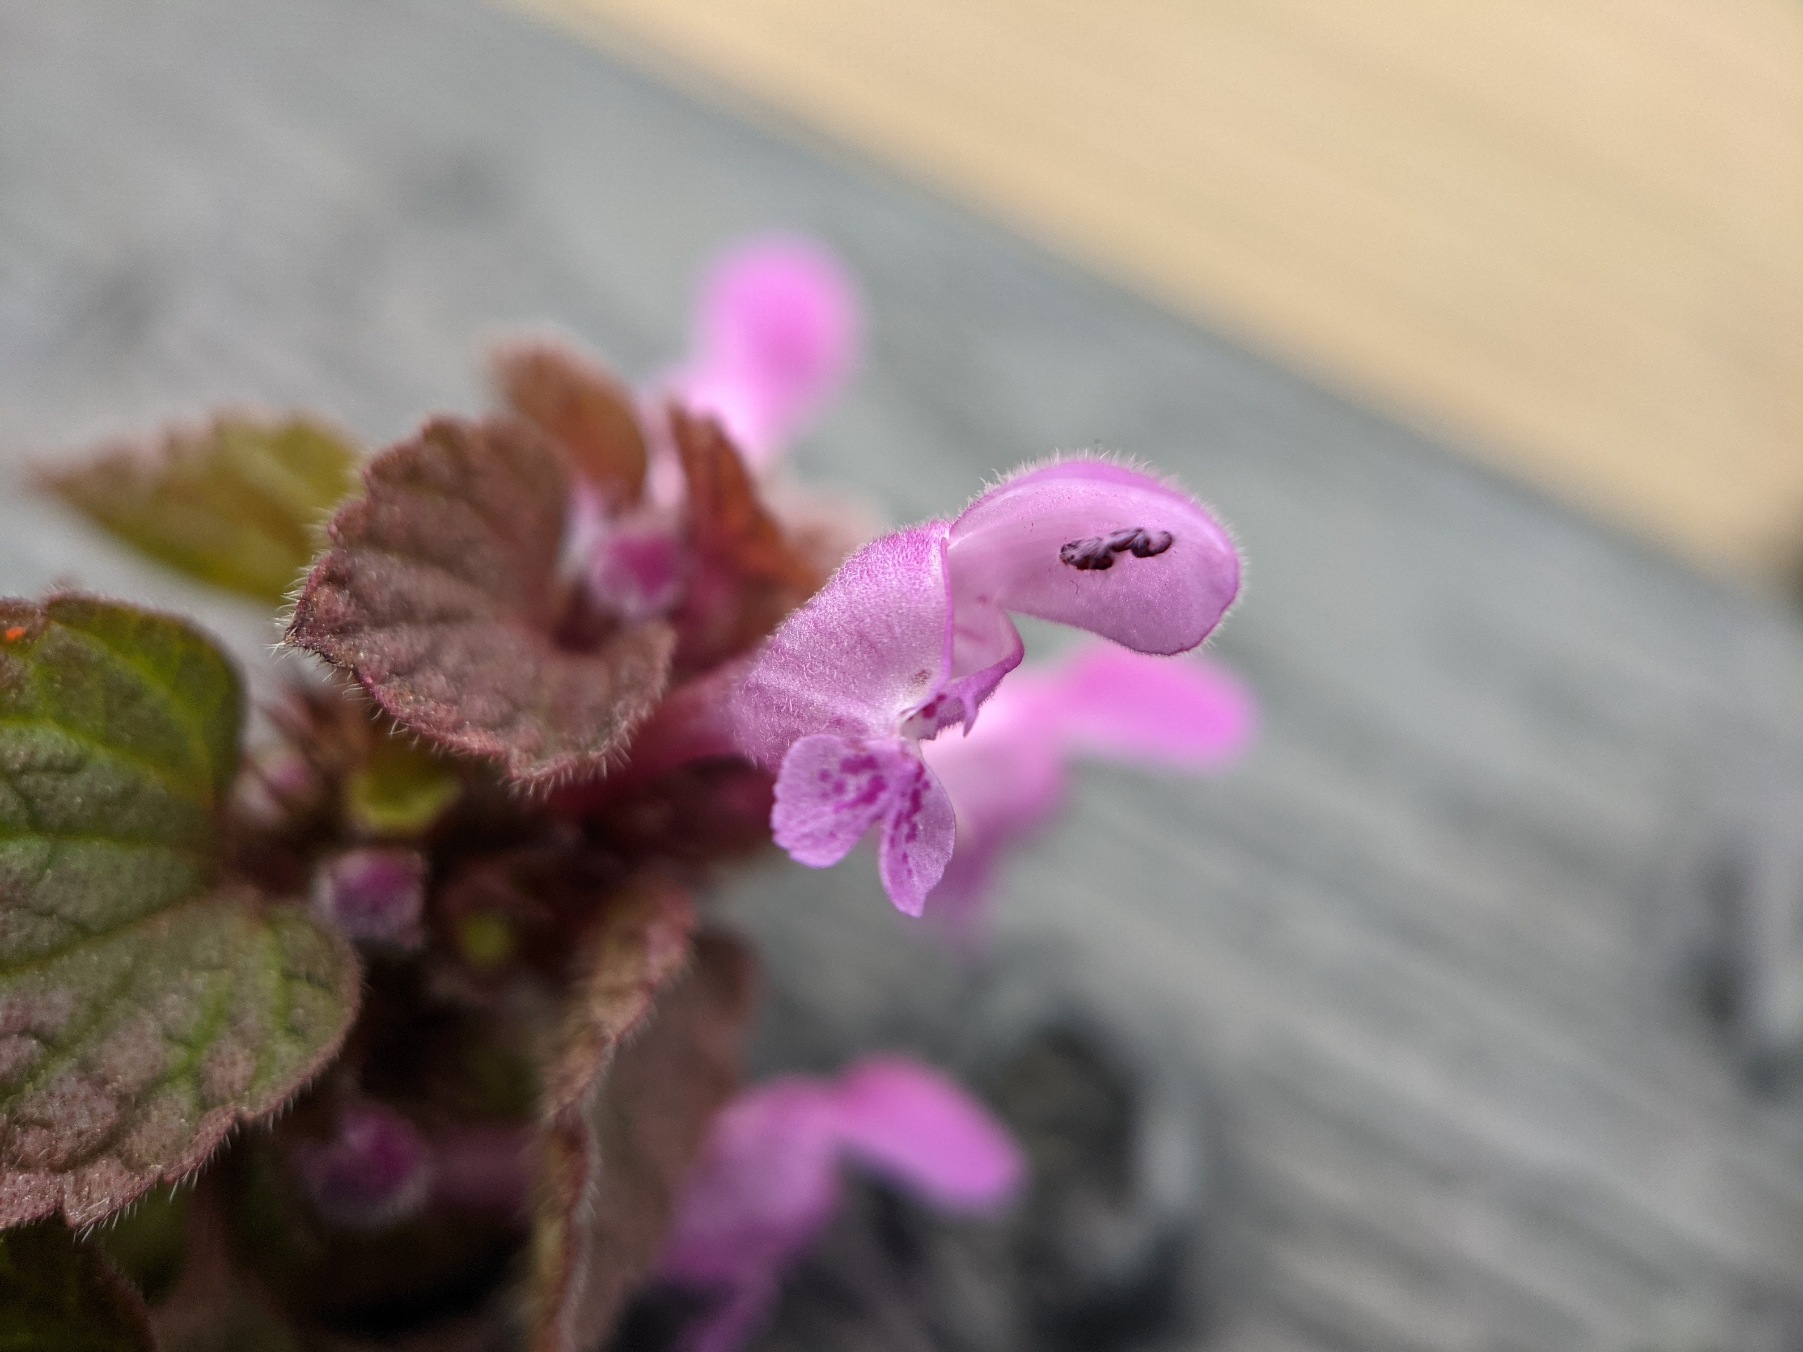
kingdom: Plantae
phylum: Tracheophyta
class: Magnoliopsida
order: Lamiales
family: Lamiaceae
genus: Lamium
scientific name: Lamium purpureum
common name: Rød tvetand
